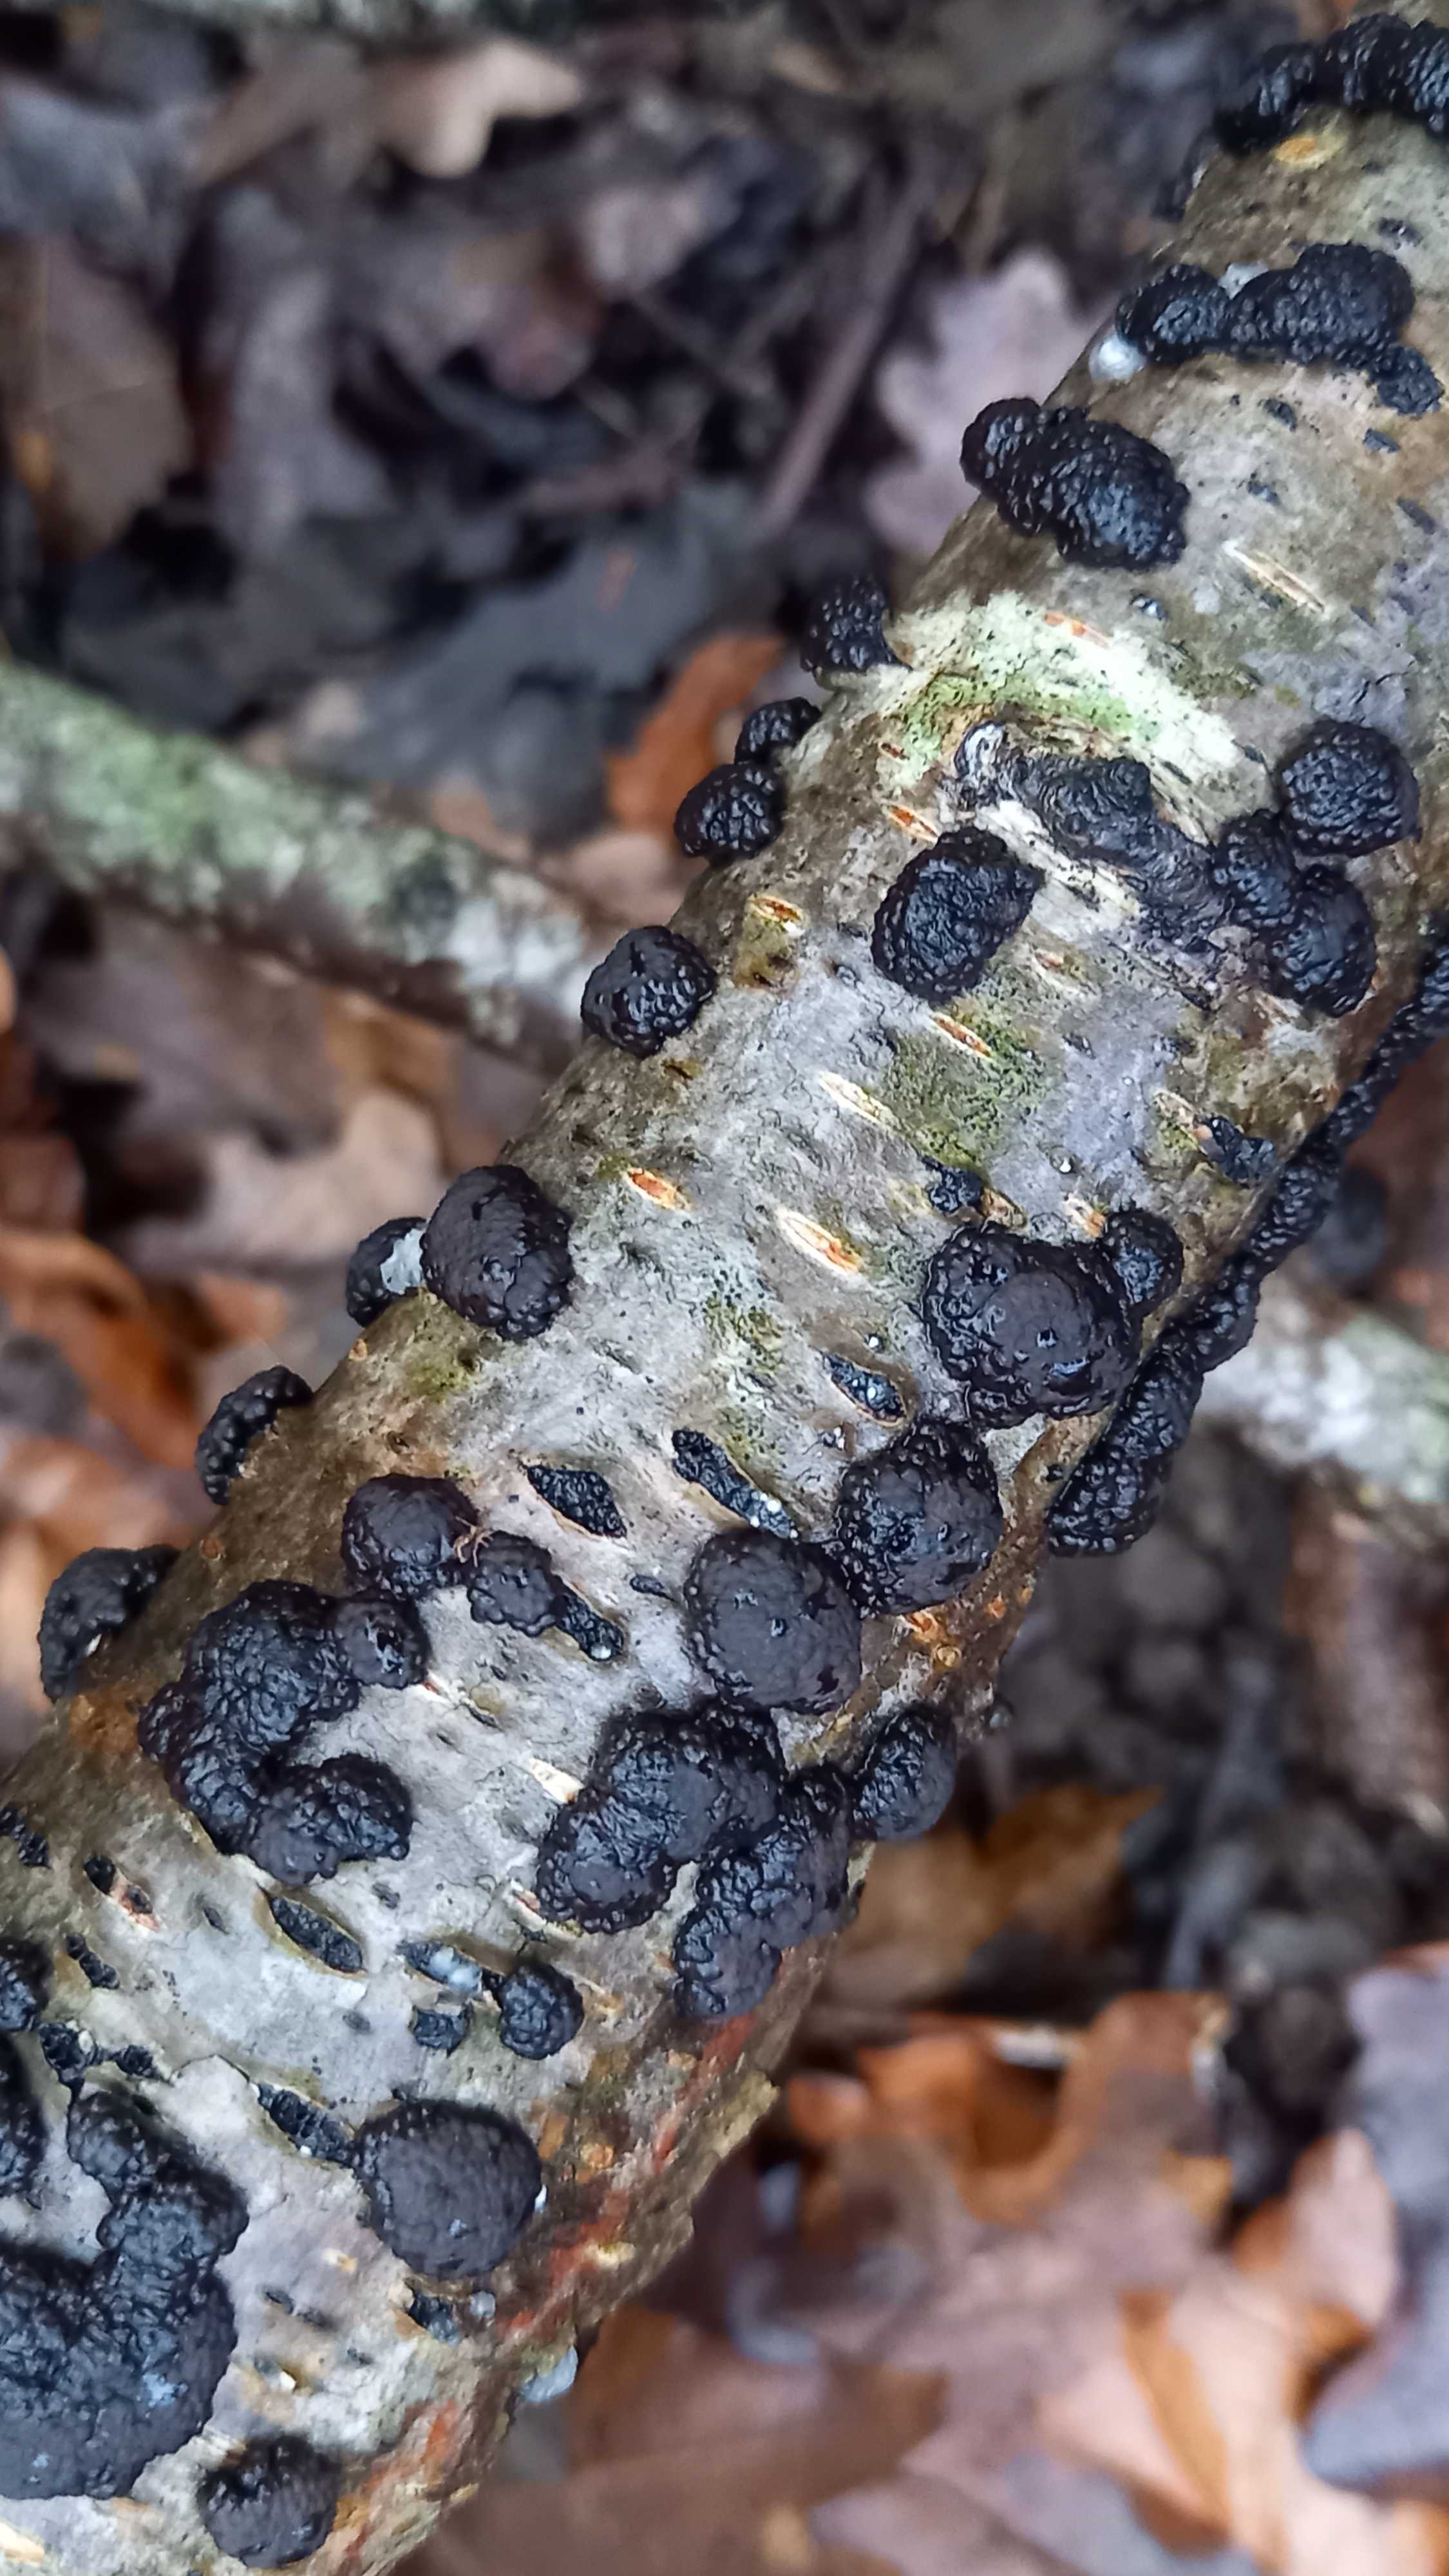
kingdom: Fungi
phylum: Ascomycota
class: Sordariomycetes
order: Xylariales
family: Hypoxylaceae
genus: Jackrogersella
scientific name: Jackrogersella multiformis
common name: foranderlig kulbær
